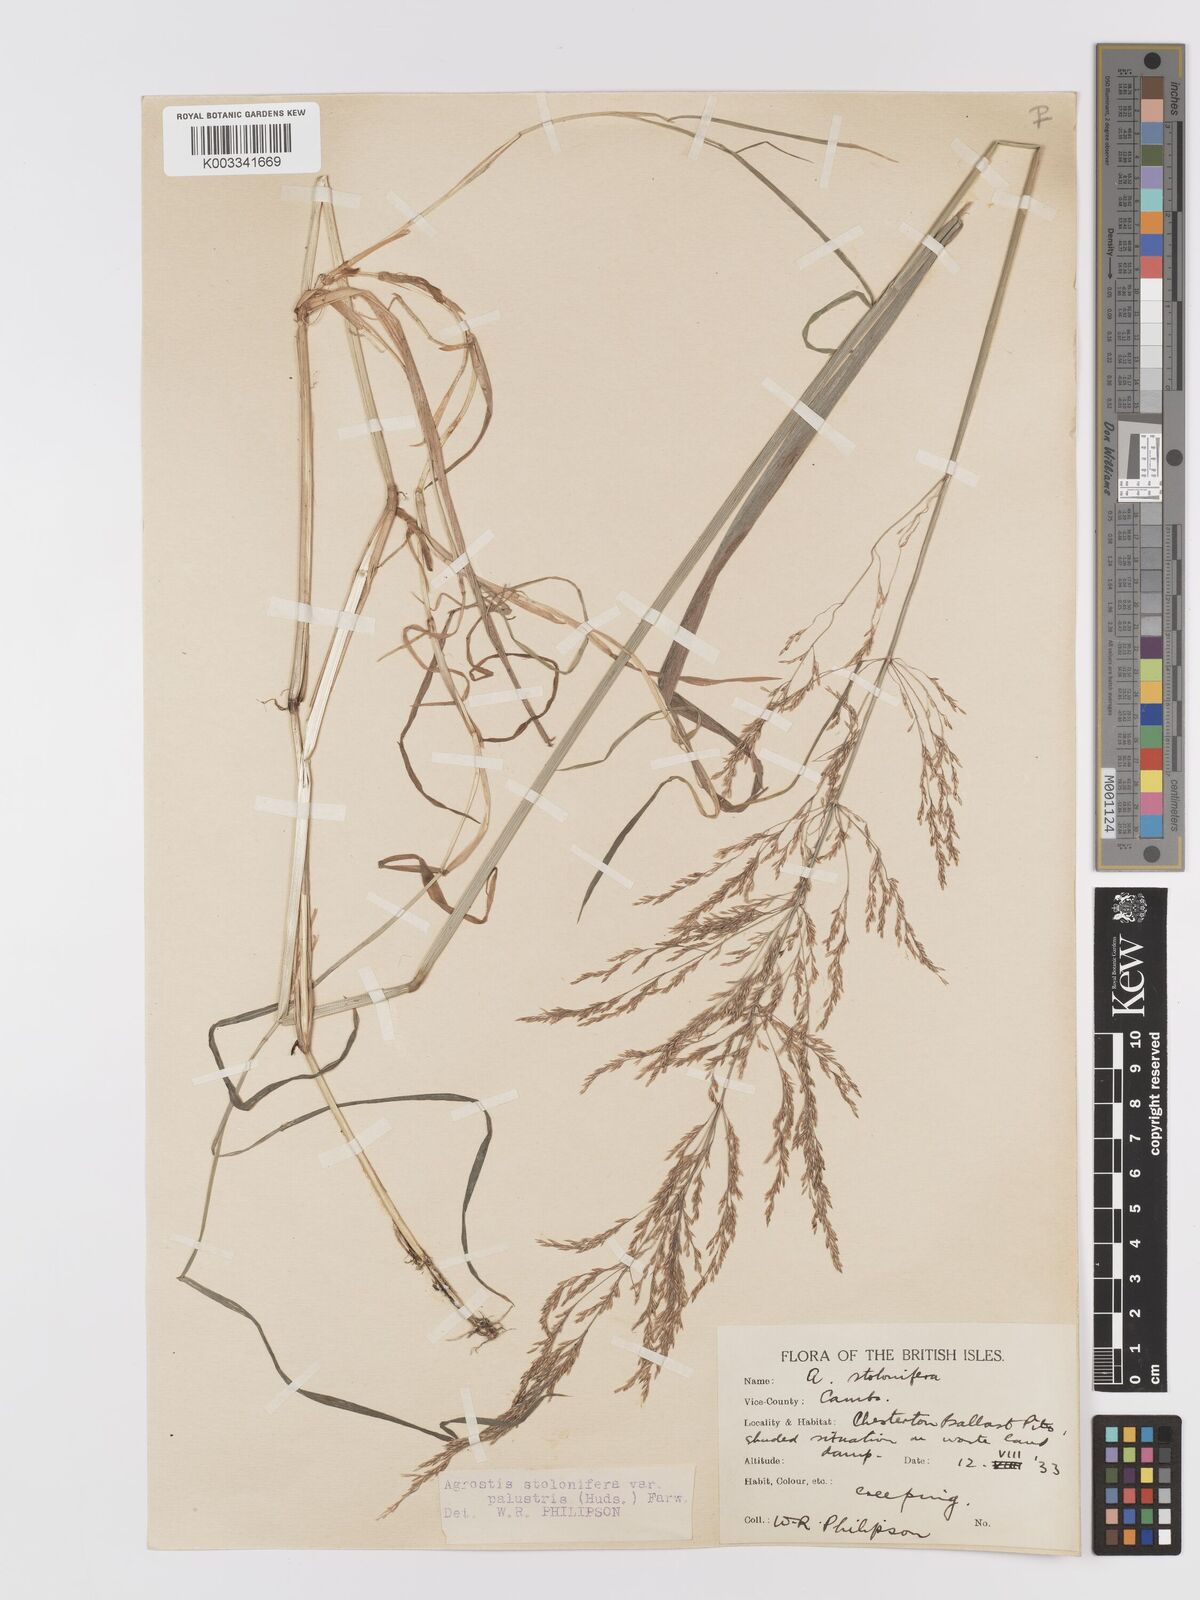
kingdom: Plantae
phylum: Tracheophyta
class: Liliopsida
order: Poales
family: Poaceae
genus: Agrostis
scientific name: Agrostis stolonifera
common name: Creeping bentgrass
